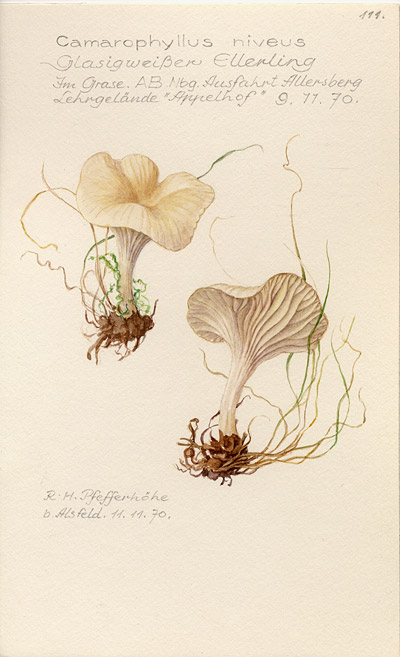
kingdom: Fungi
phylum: Basidiomycota
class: Agaricomycetes
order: Agaricales
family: Hygrophoraceae
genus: Cuphophyllus
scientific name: Cuphophyllus virgineus
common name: Snowy waxcap
